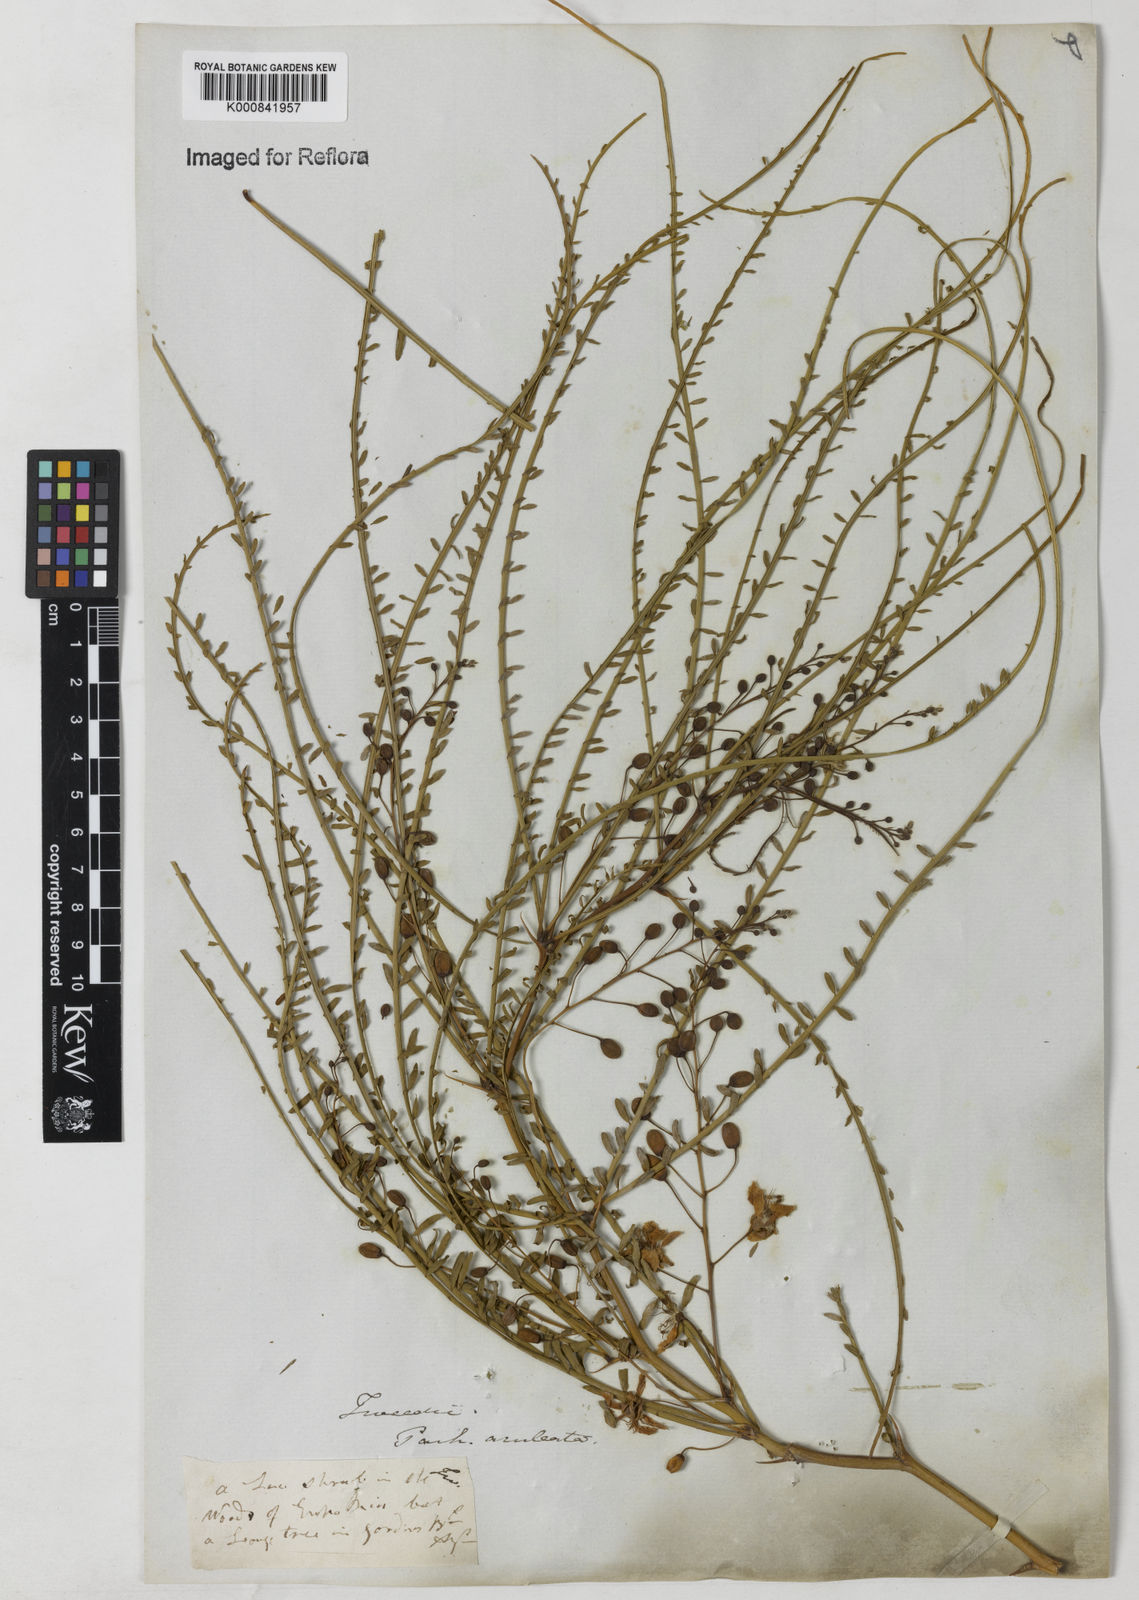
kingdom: Plantae
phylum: Tracheophyta
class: Magnoliopsida
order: Fabales
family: Fabaceae
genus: Parkinsonia
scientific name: Parkinsonia aculeata
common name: Jerusalem thorn
